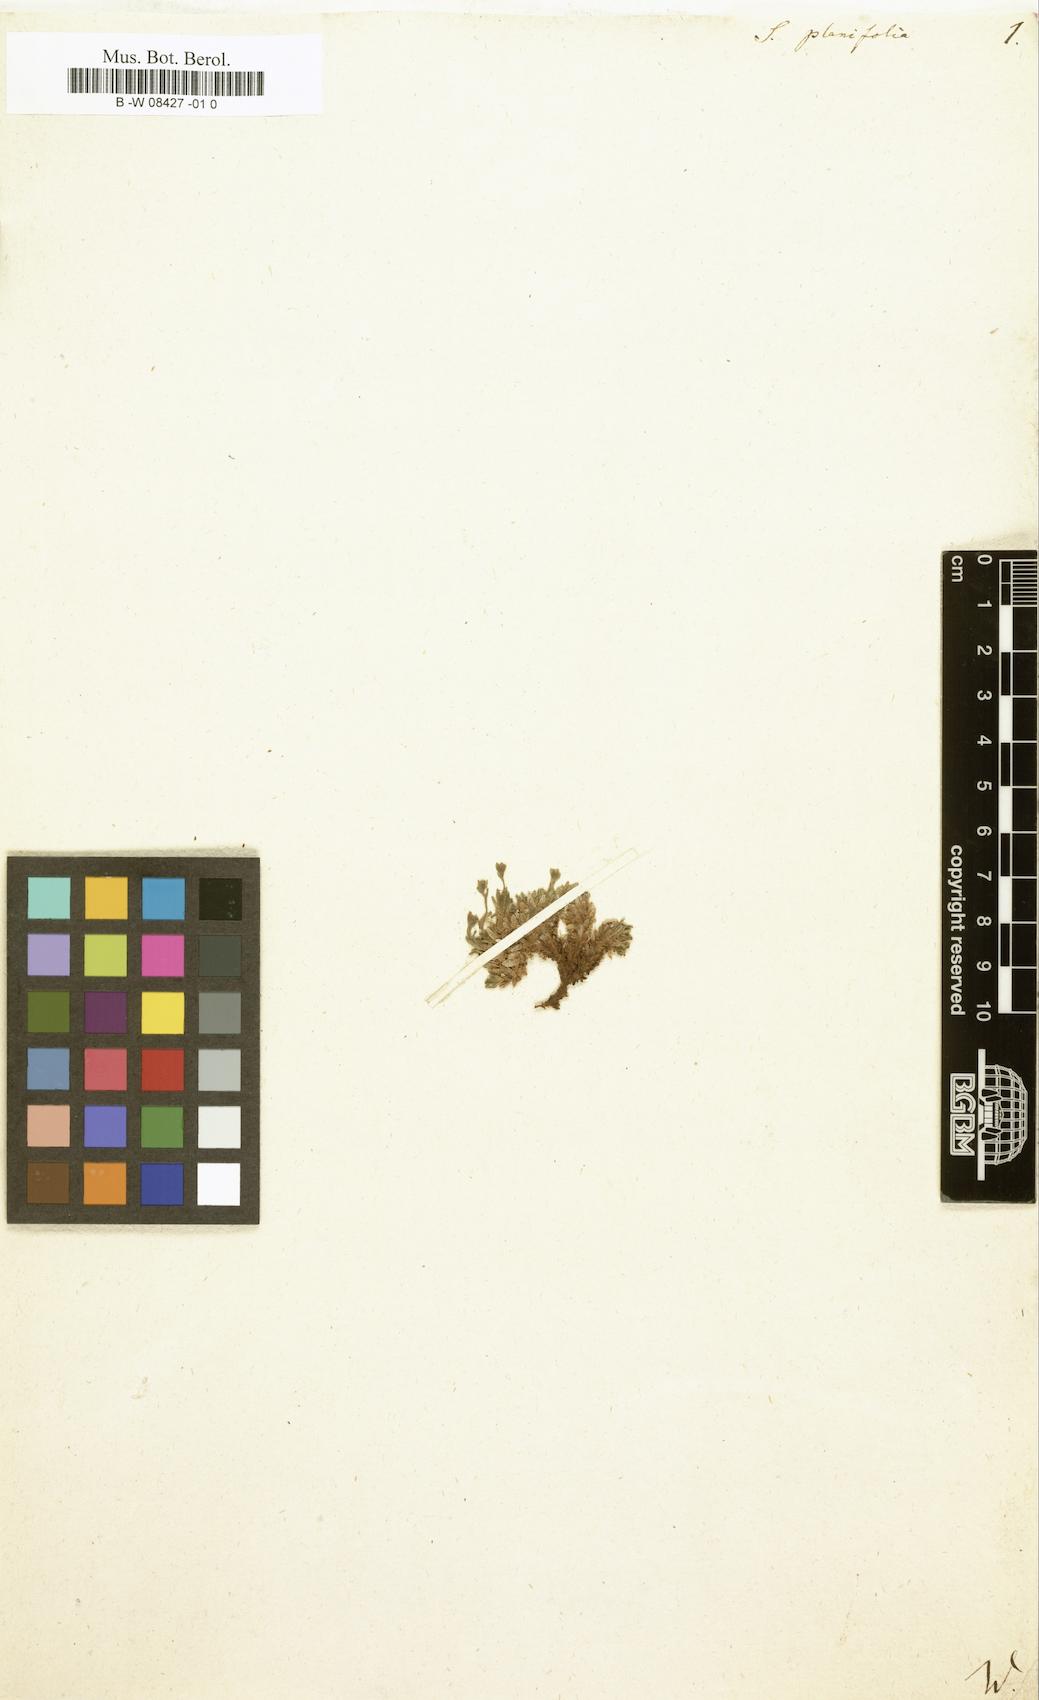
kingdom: Plantae
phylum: Tracheophyta
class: Magnoliopsida
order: Saxifragales
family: Saxifragaceae
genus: Saxifraga
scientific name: Saxifraga
